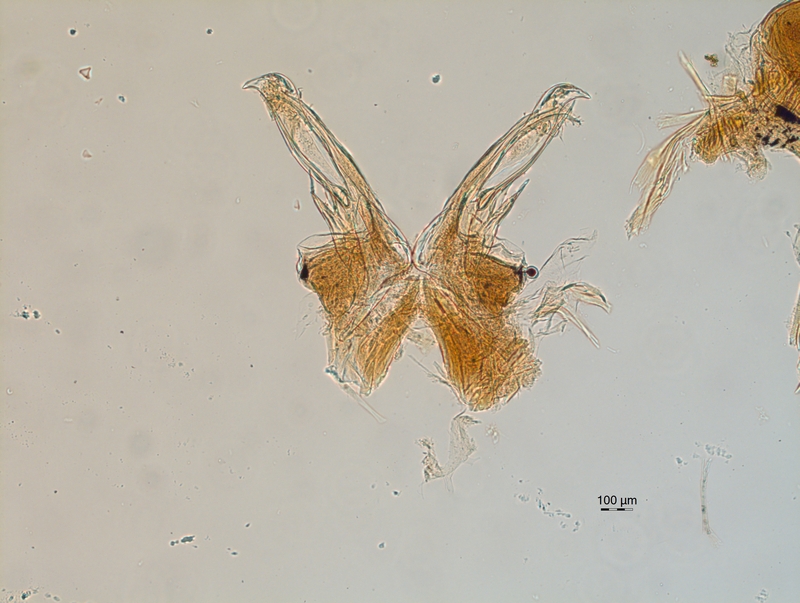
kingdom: Animalia
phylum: Arthropoda
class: Diplopoda
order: Chordeumatida
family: Chordeumatidae
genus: Orthochordeumella
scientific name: Orthochordeumella fulva
